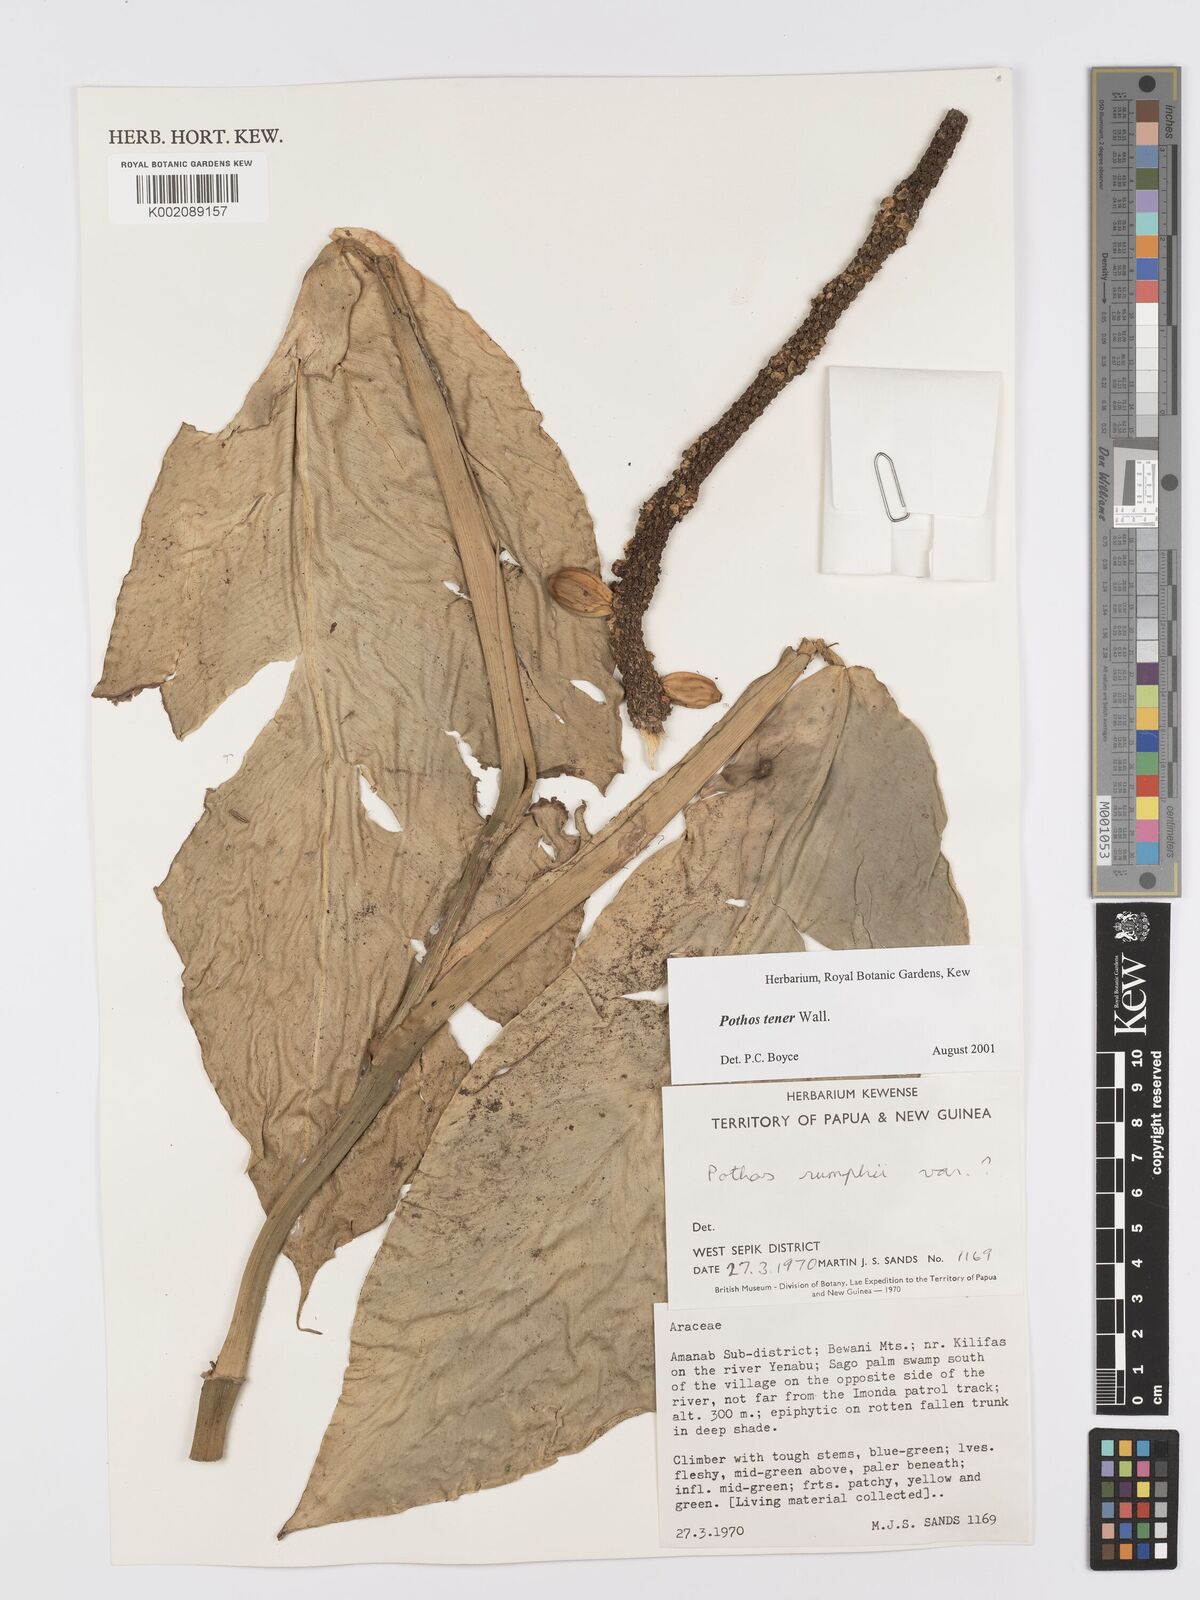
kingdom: Plantae
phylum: Tracheophyta
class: Liliopsida
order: Alismatales
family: Araceae
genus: Pothos
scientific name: Pothos tener
